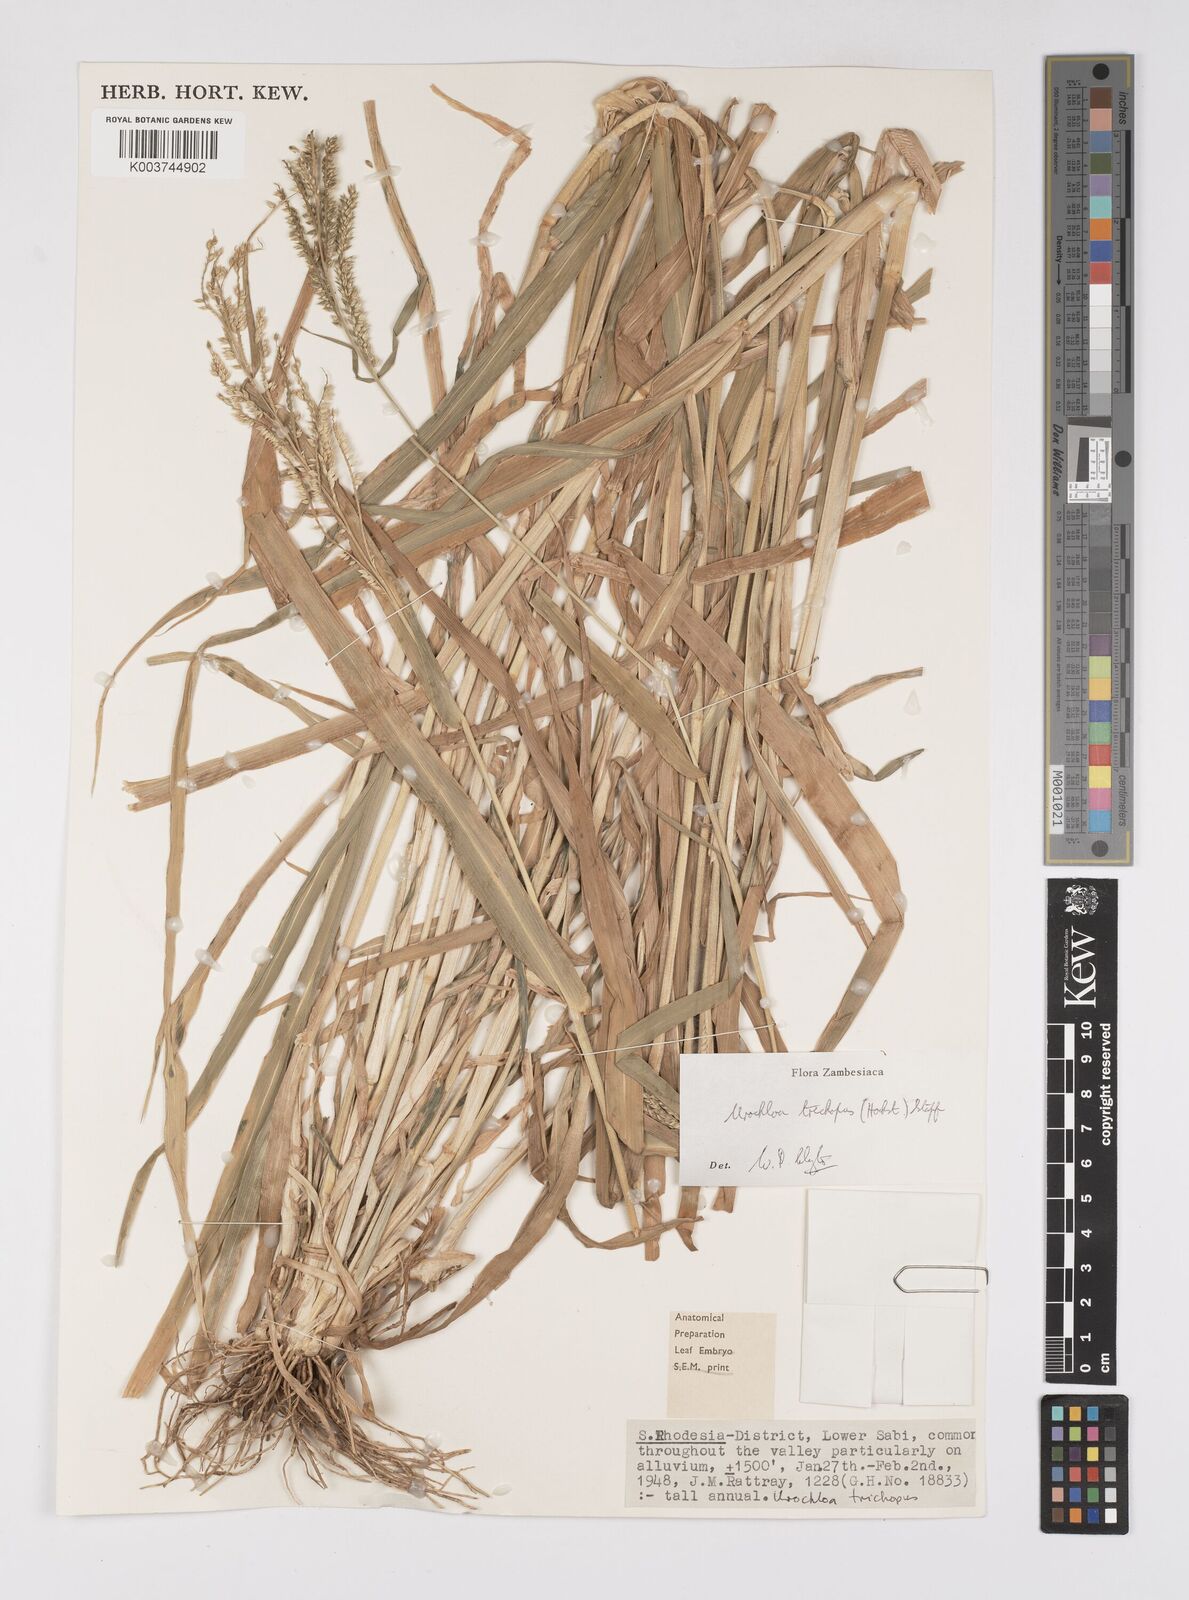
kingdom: Plantae
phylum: Tracheophyta
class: Liliopsida
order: Poales
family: Poaceae
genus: Urochloa
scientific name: Urochloa trichopus
